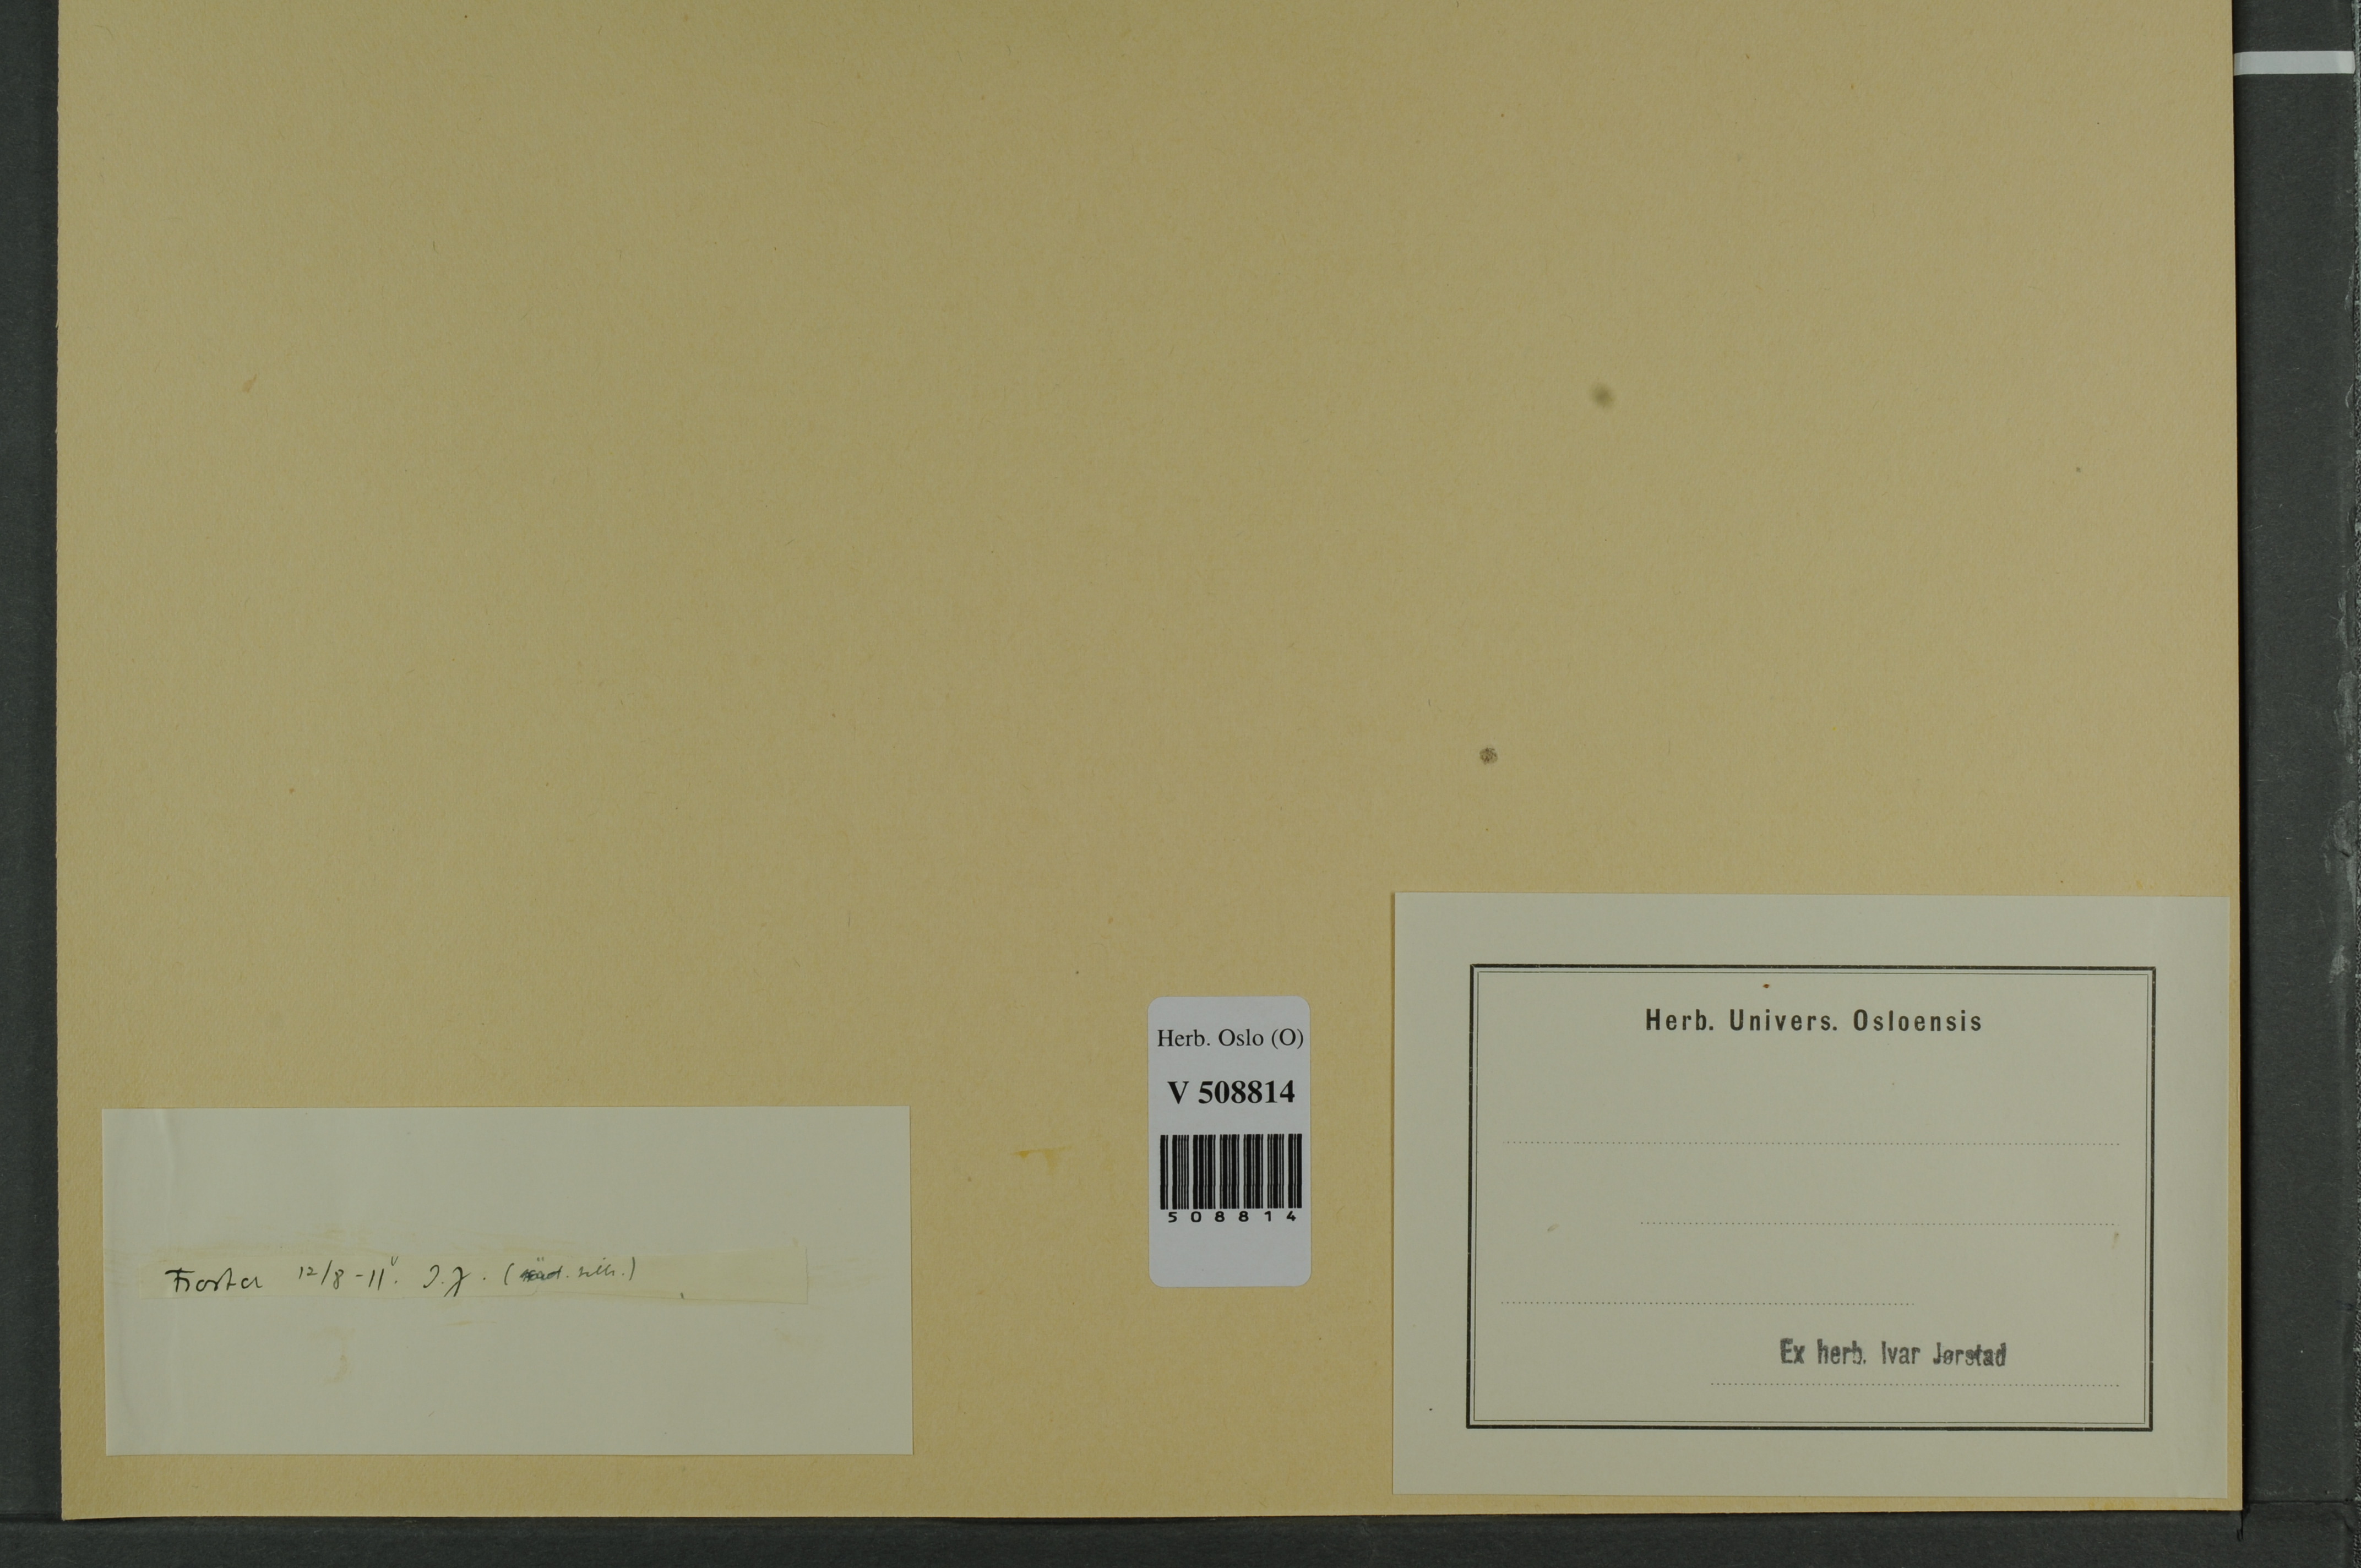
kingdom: Plantae
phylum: Tracheophyta
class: Pinopsida
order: Pinales
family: Cupressaceae
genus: Juniperus
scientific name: Juniperus communis
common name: Common juniper
